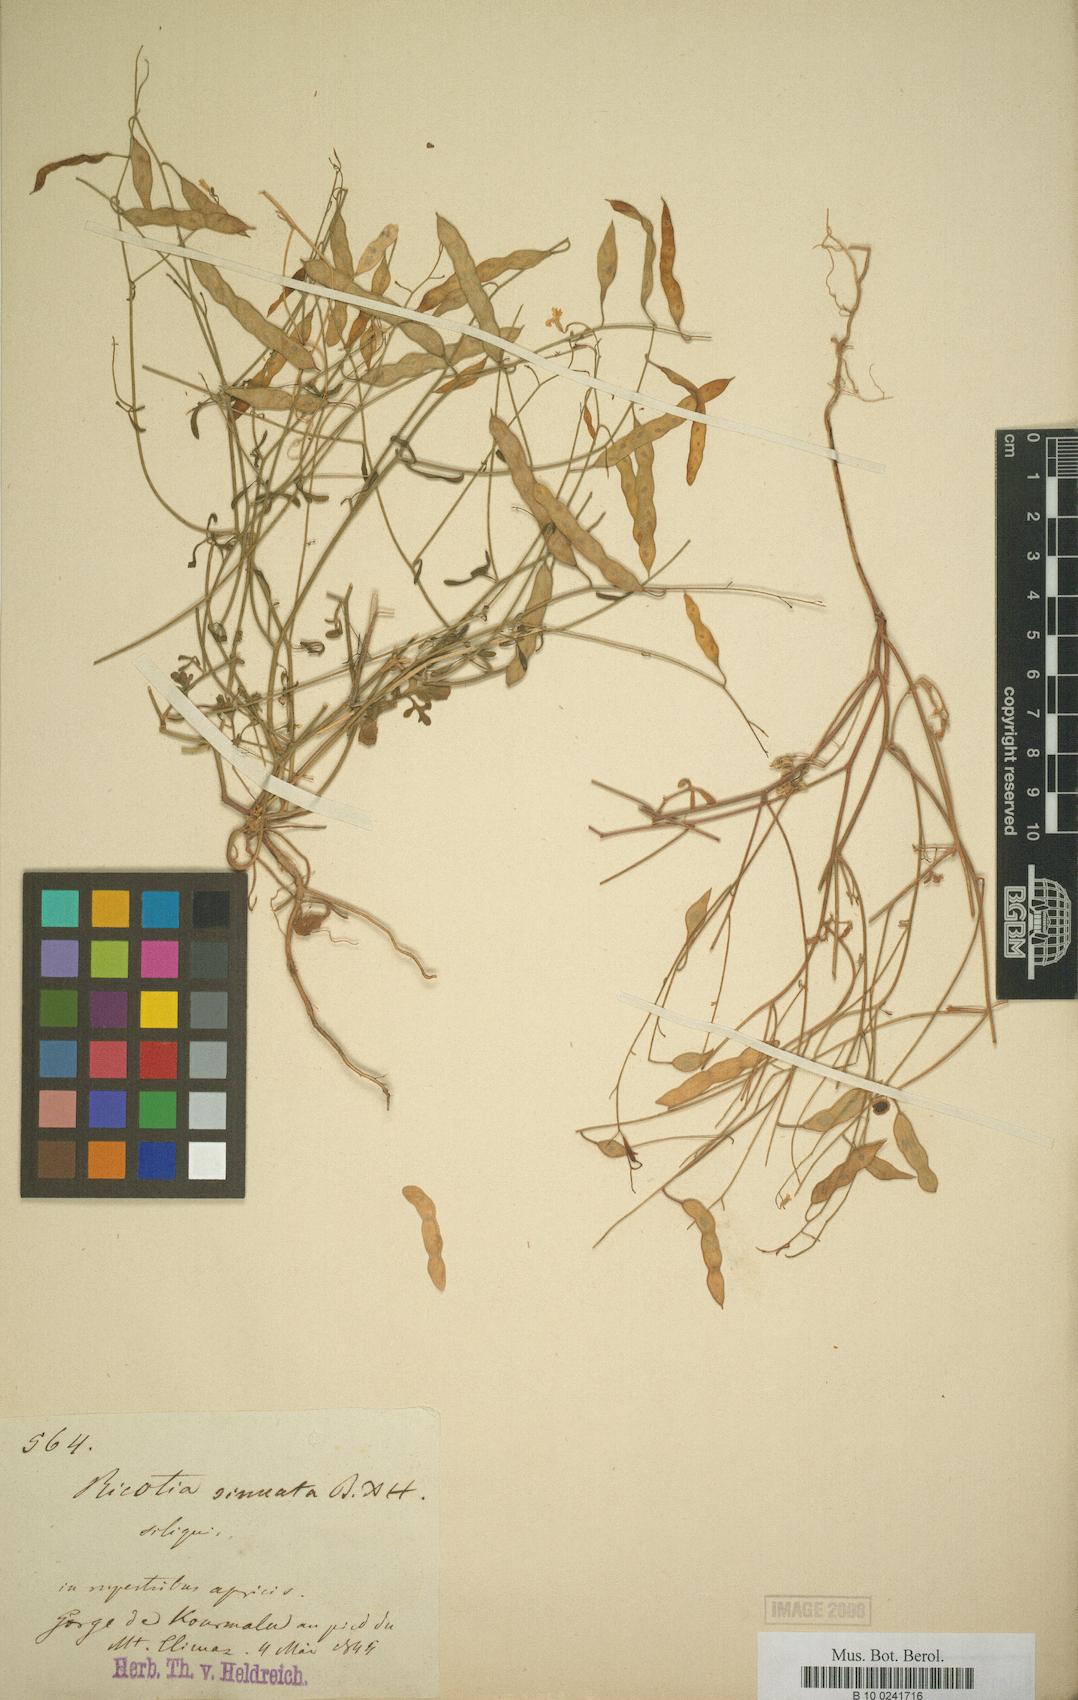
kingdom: Plantae
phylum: Tracheophyta
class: Magnoliopsida
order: Brassicales
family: Brassicaceae
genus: Ricotia
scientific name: Ricotia sinuata
